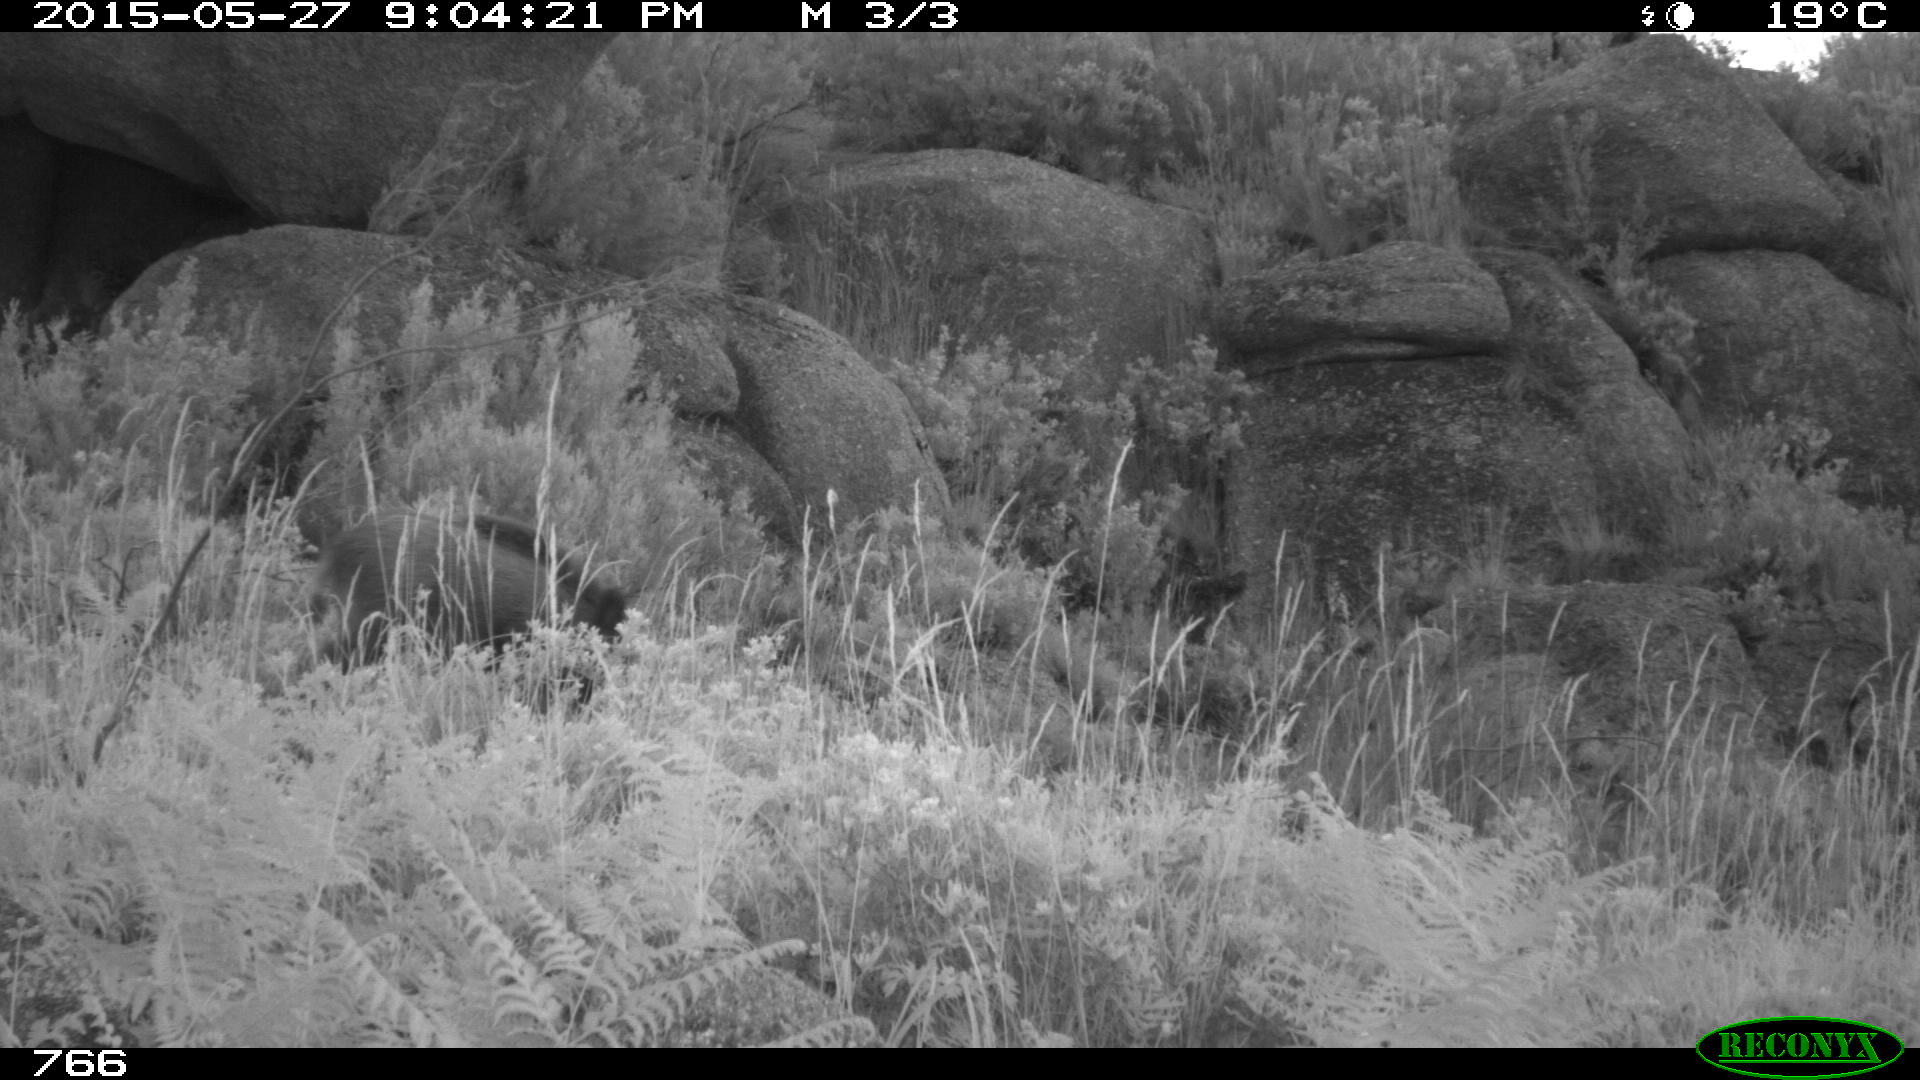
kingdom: Animalia
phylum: Chordata
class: Mammalia
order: Artiodactyla
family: Suidae
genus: Sus
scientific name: Sus scrofa
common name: Wild boar
